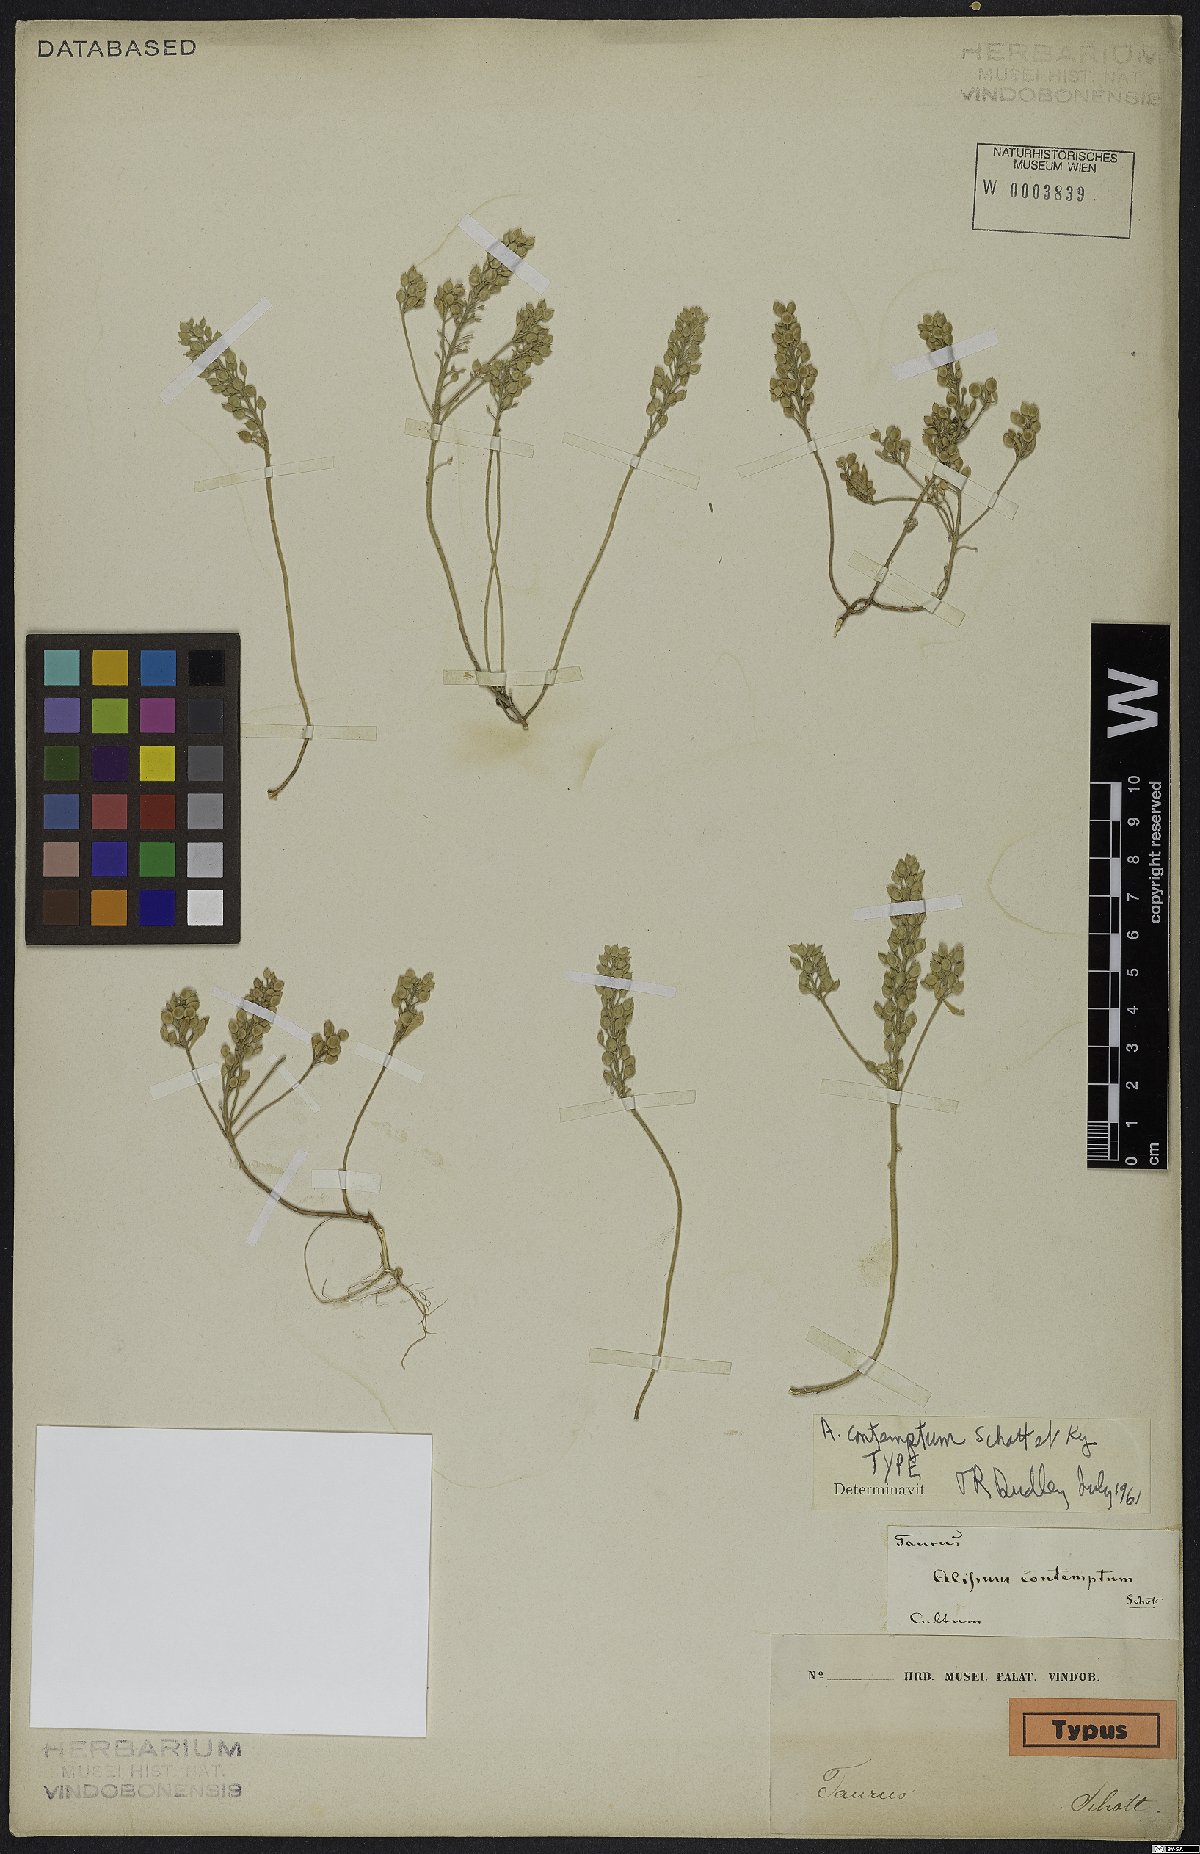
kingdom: Plantae
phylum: Tracheophyta
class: Magnoliopsida
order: Brassicales
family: Brassicaceae
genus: Alyssum
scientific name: Alyssum contemptum
